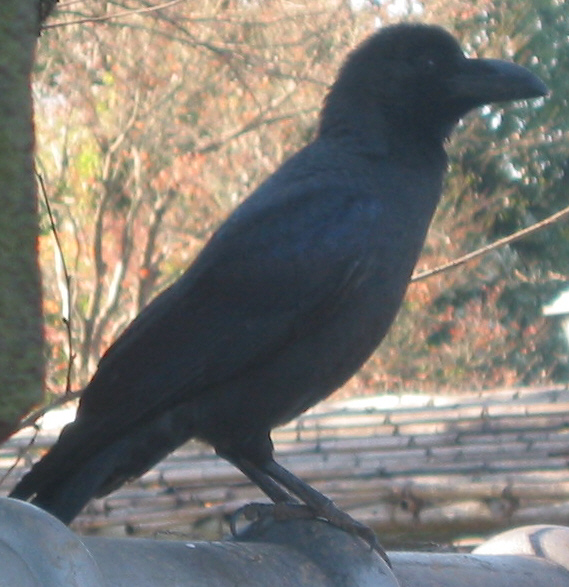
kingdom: Animalia
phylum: Chordata
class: Aves
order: Passeriformes
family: Corvidae
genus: Corvus
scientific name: Corvus macrorhynchos
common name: Large-billed crow
